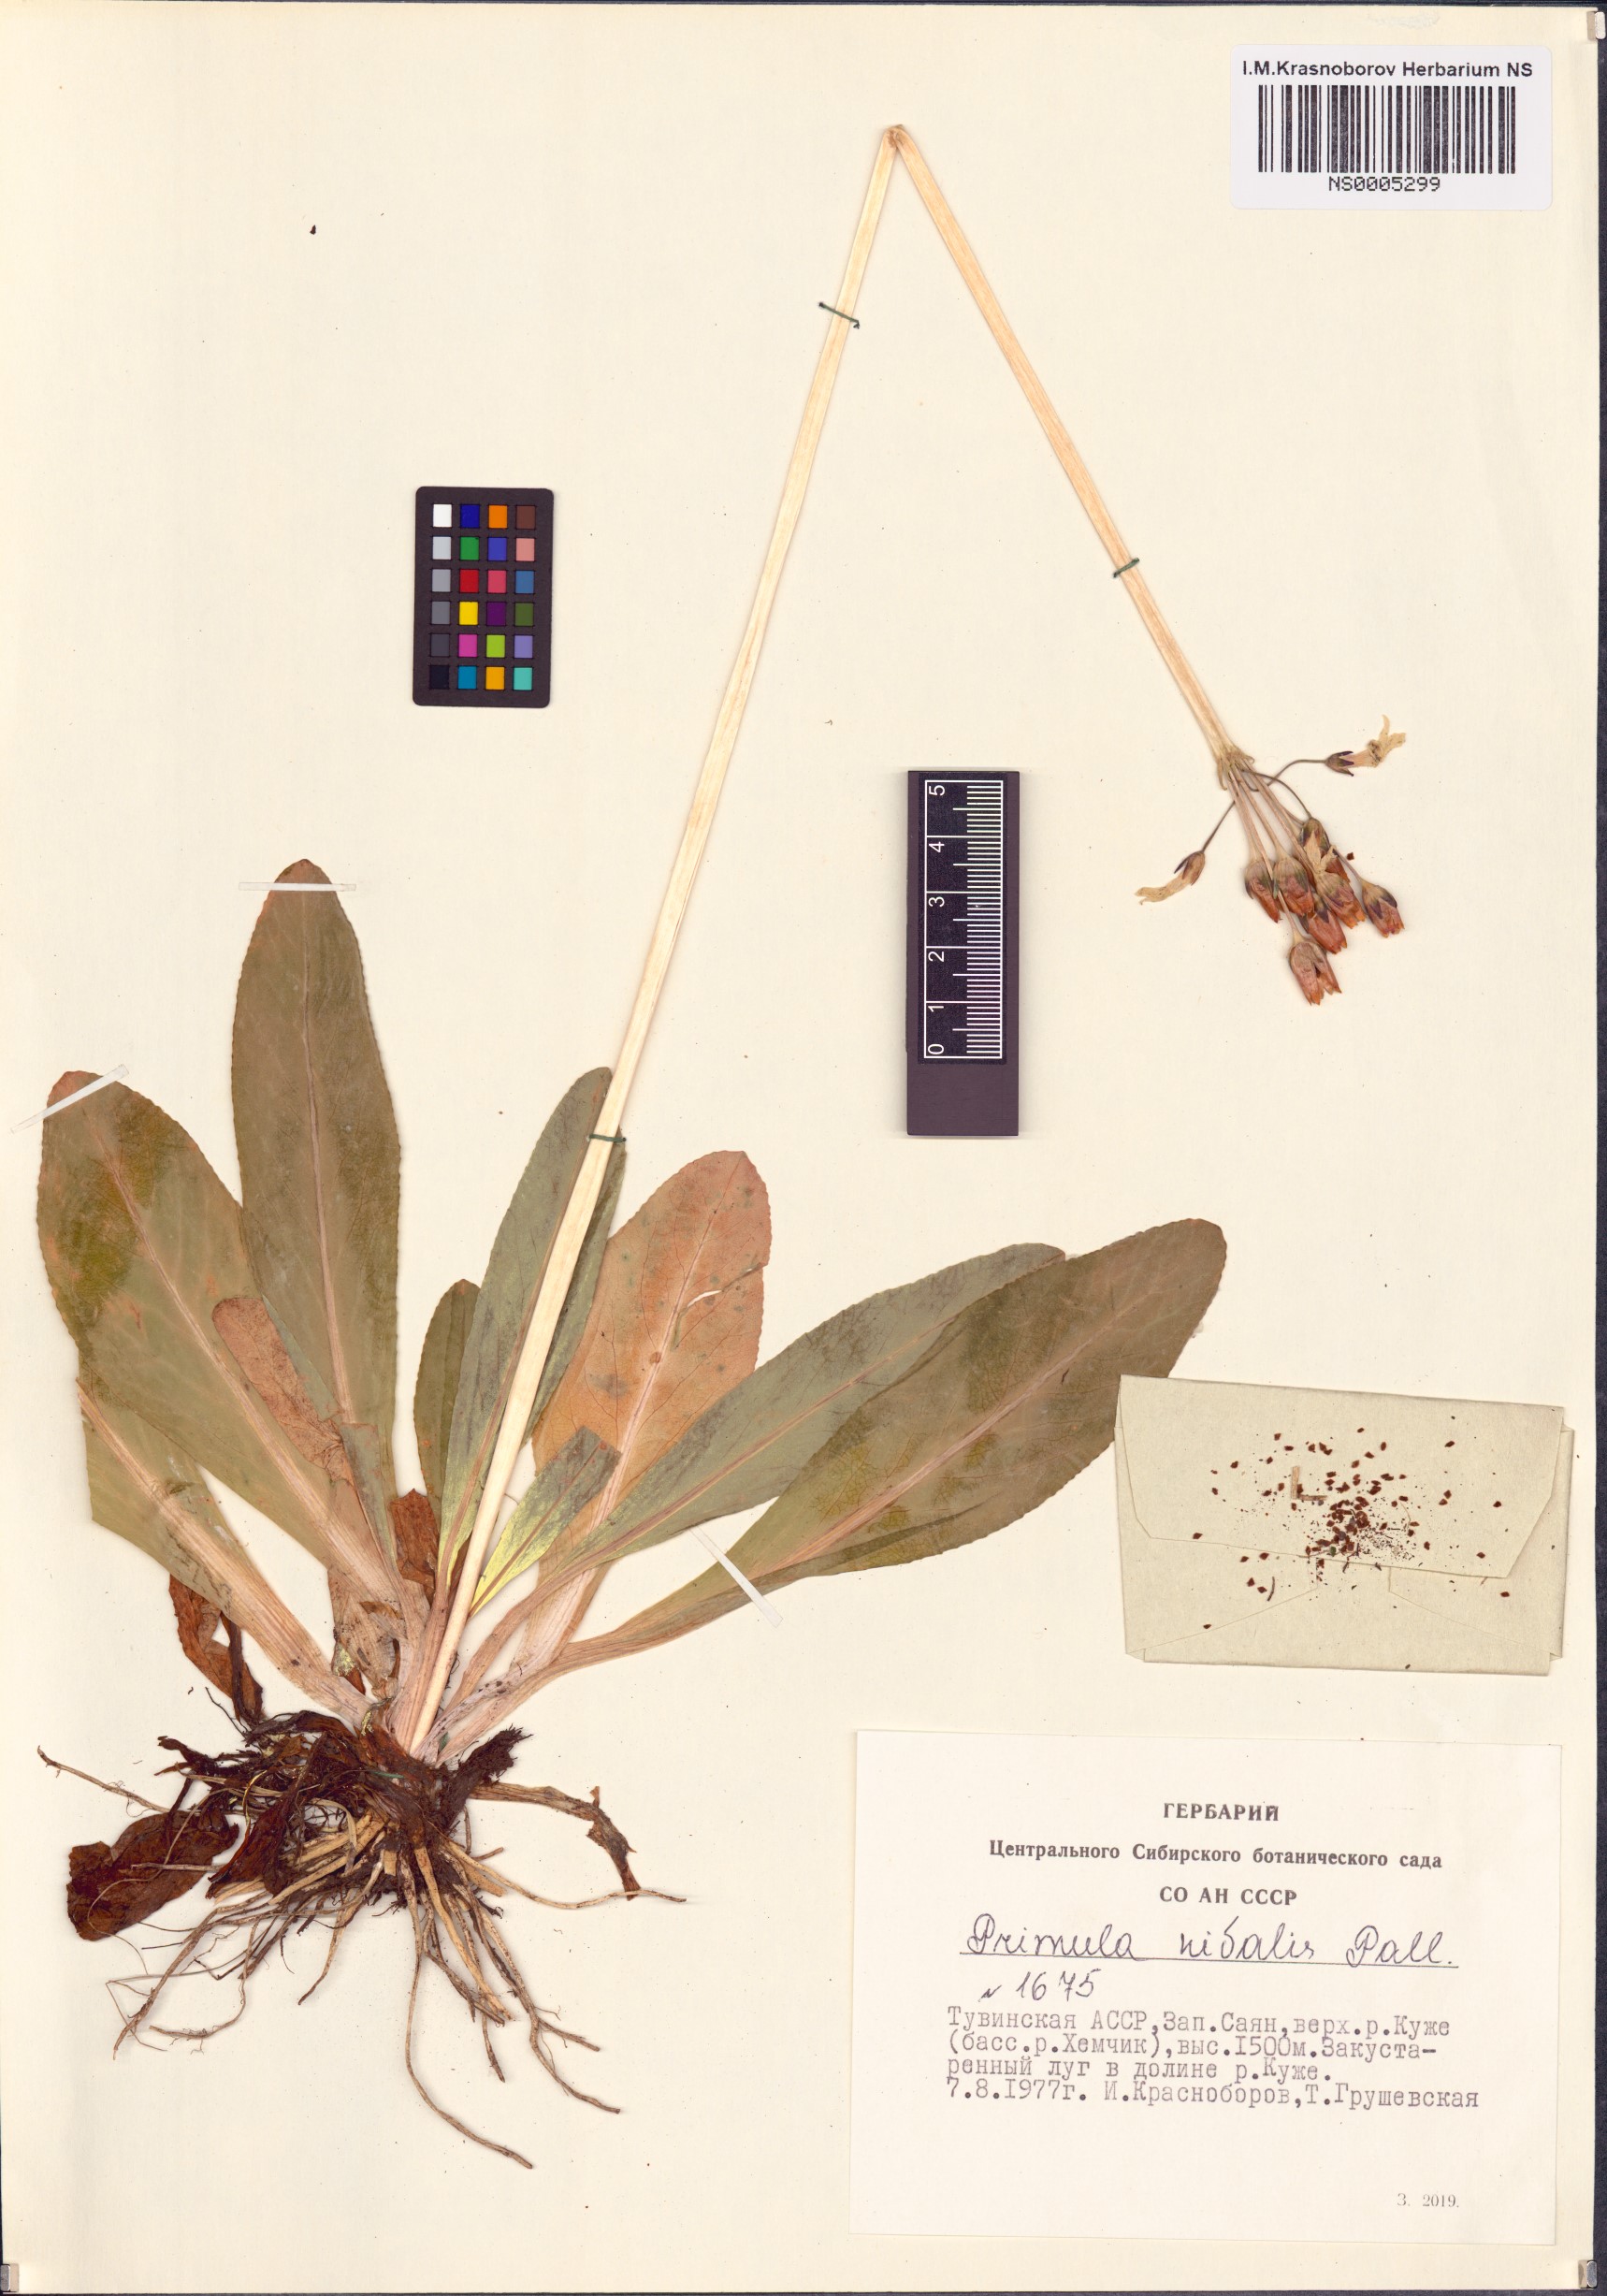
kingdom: Plantae
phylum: Tracheophyta
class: Magnoliopsida
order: Ericales
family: Primulaceae
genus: Primula
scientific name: Primula nivalis
